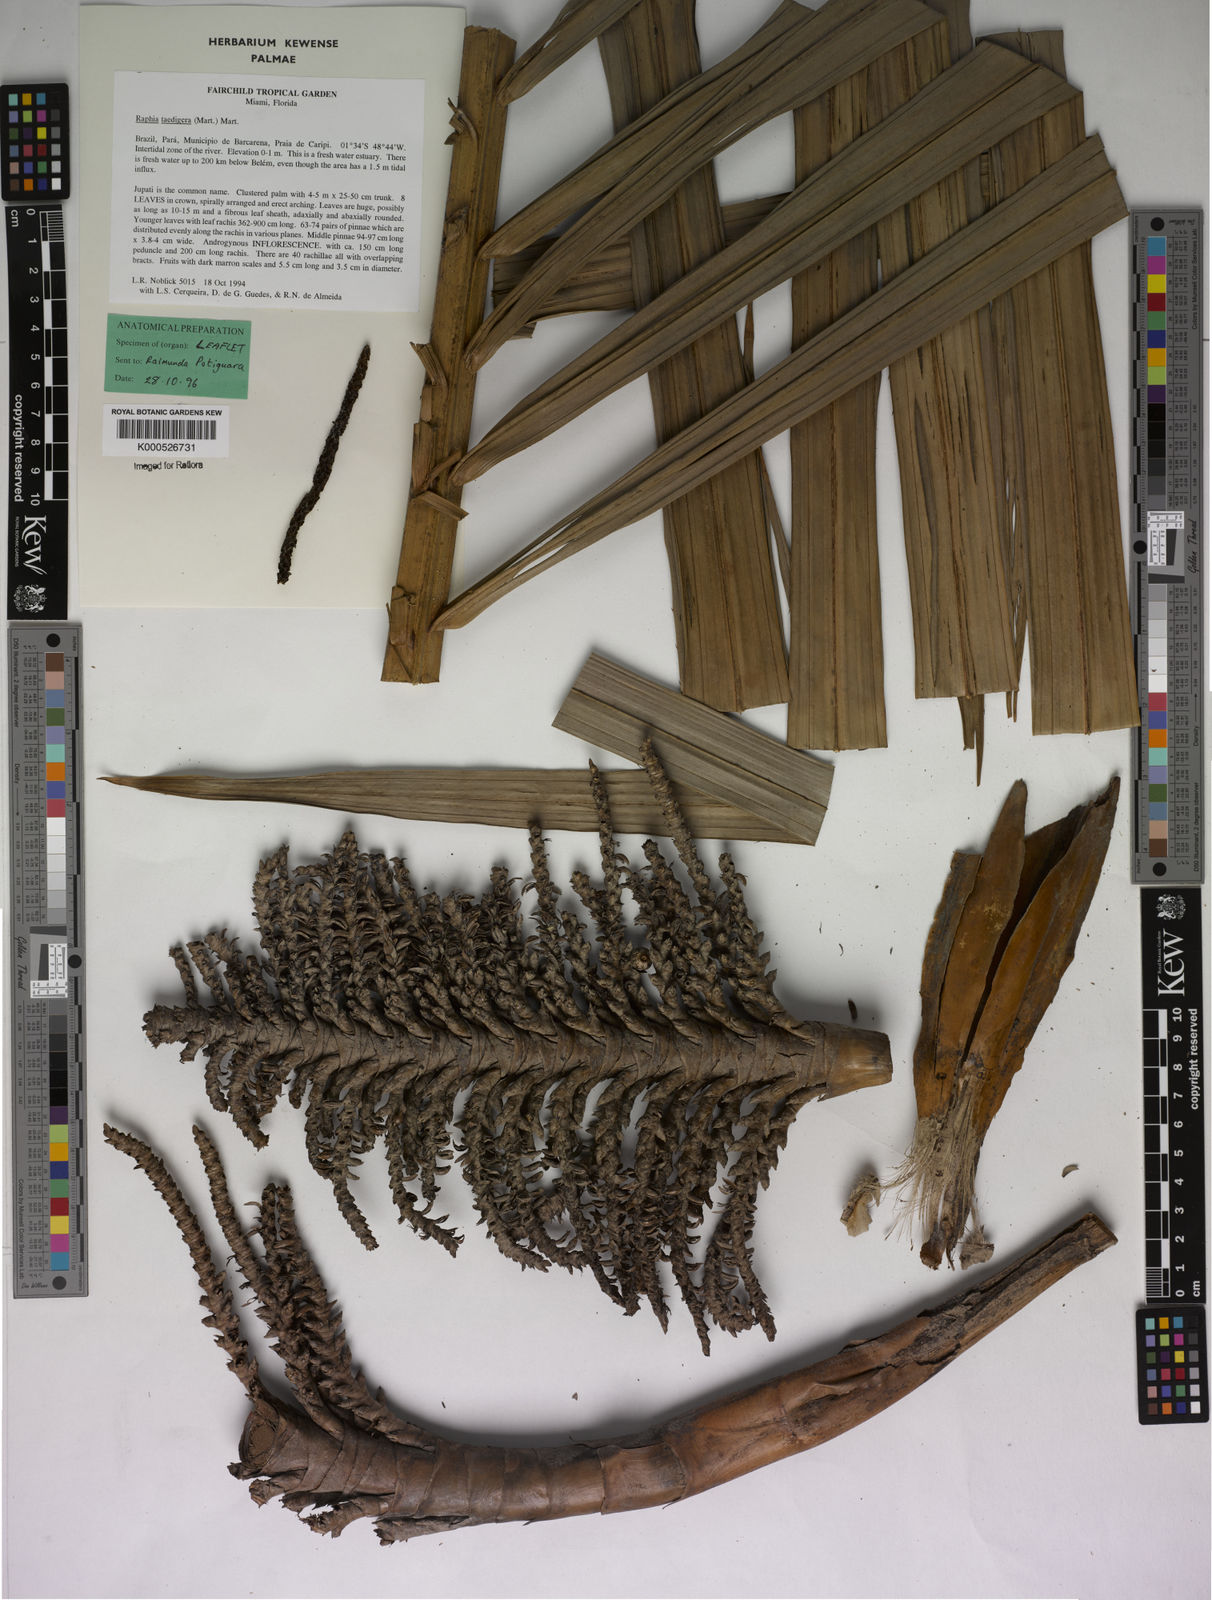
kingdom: Plantae
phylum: Tracheophyta
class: Liliopsida
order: Arecales
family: Arecaceae
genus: Raphia
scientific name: Raphia taedigera
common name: Pinecone palm
